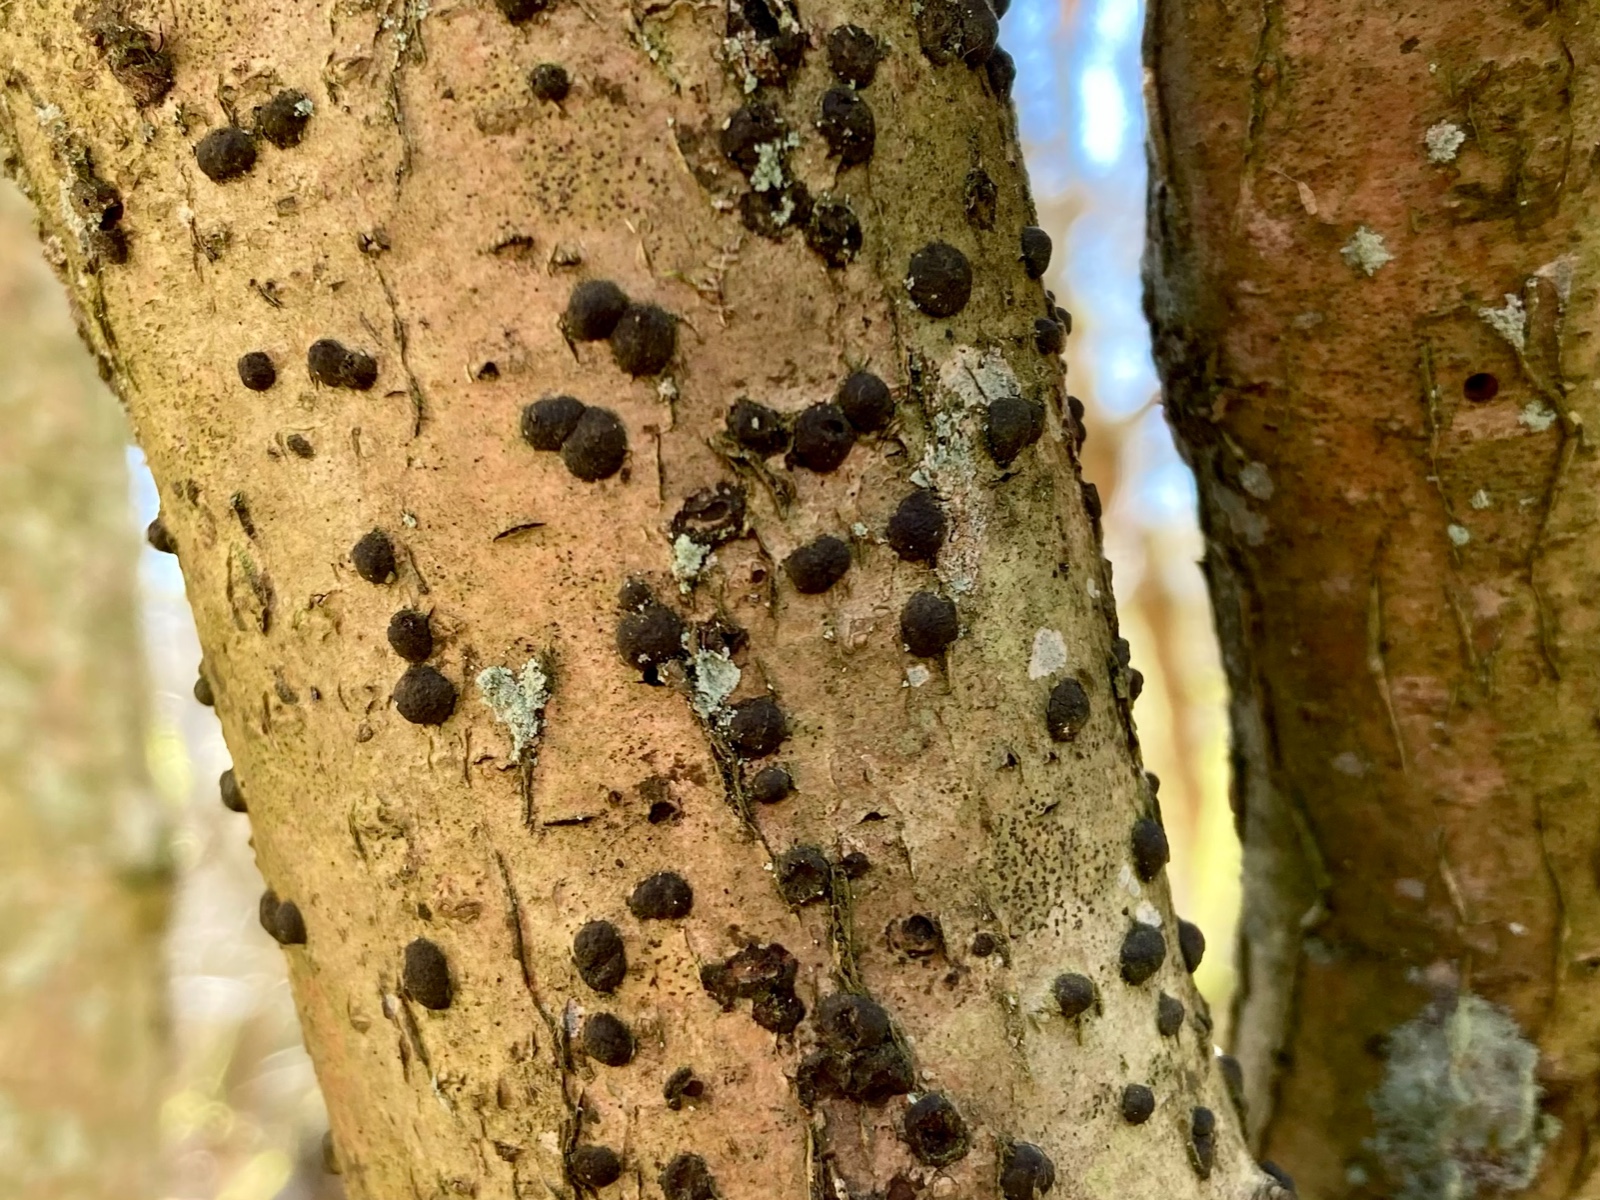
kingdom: Fungi
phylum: Ascomycota
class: Sordariomycetes
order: Xylariales
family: Hypoxylaceae
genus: Hypoxylon
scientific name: Hypoxylon fuscum
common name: kegleformet kulbær
